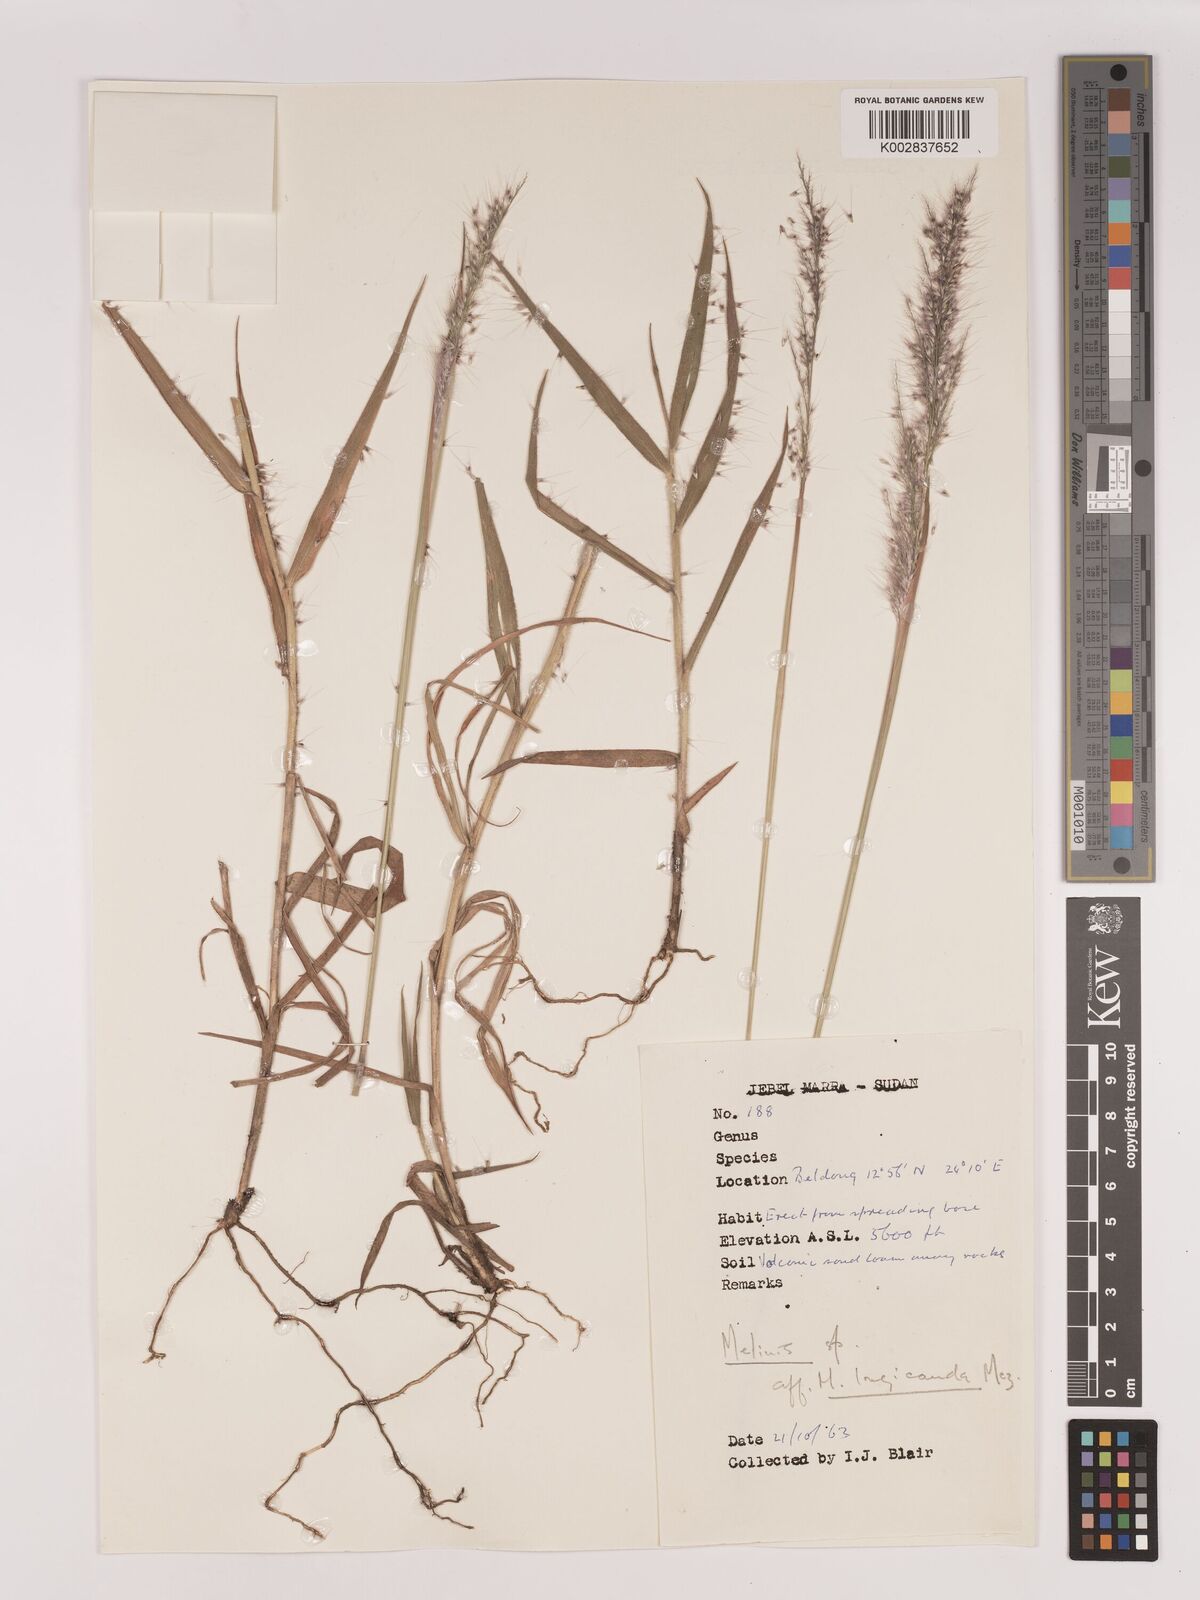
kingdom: Plantae
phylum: Tracheophyta
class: Liliopsida
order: Poales
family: Poaceae
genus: Melinis
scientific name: Melinis longiseta
